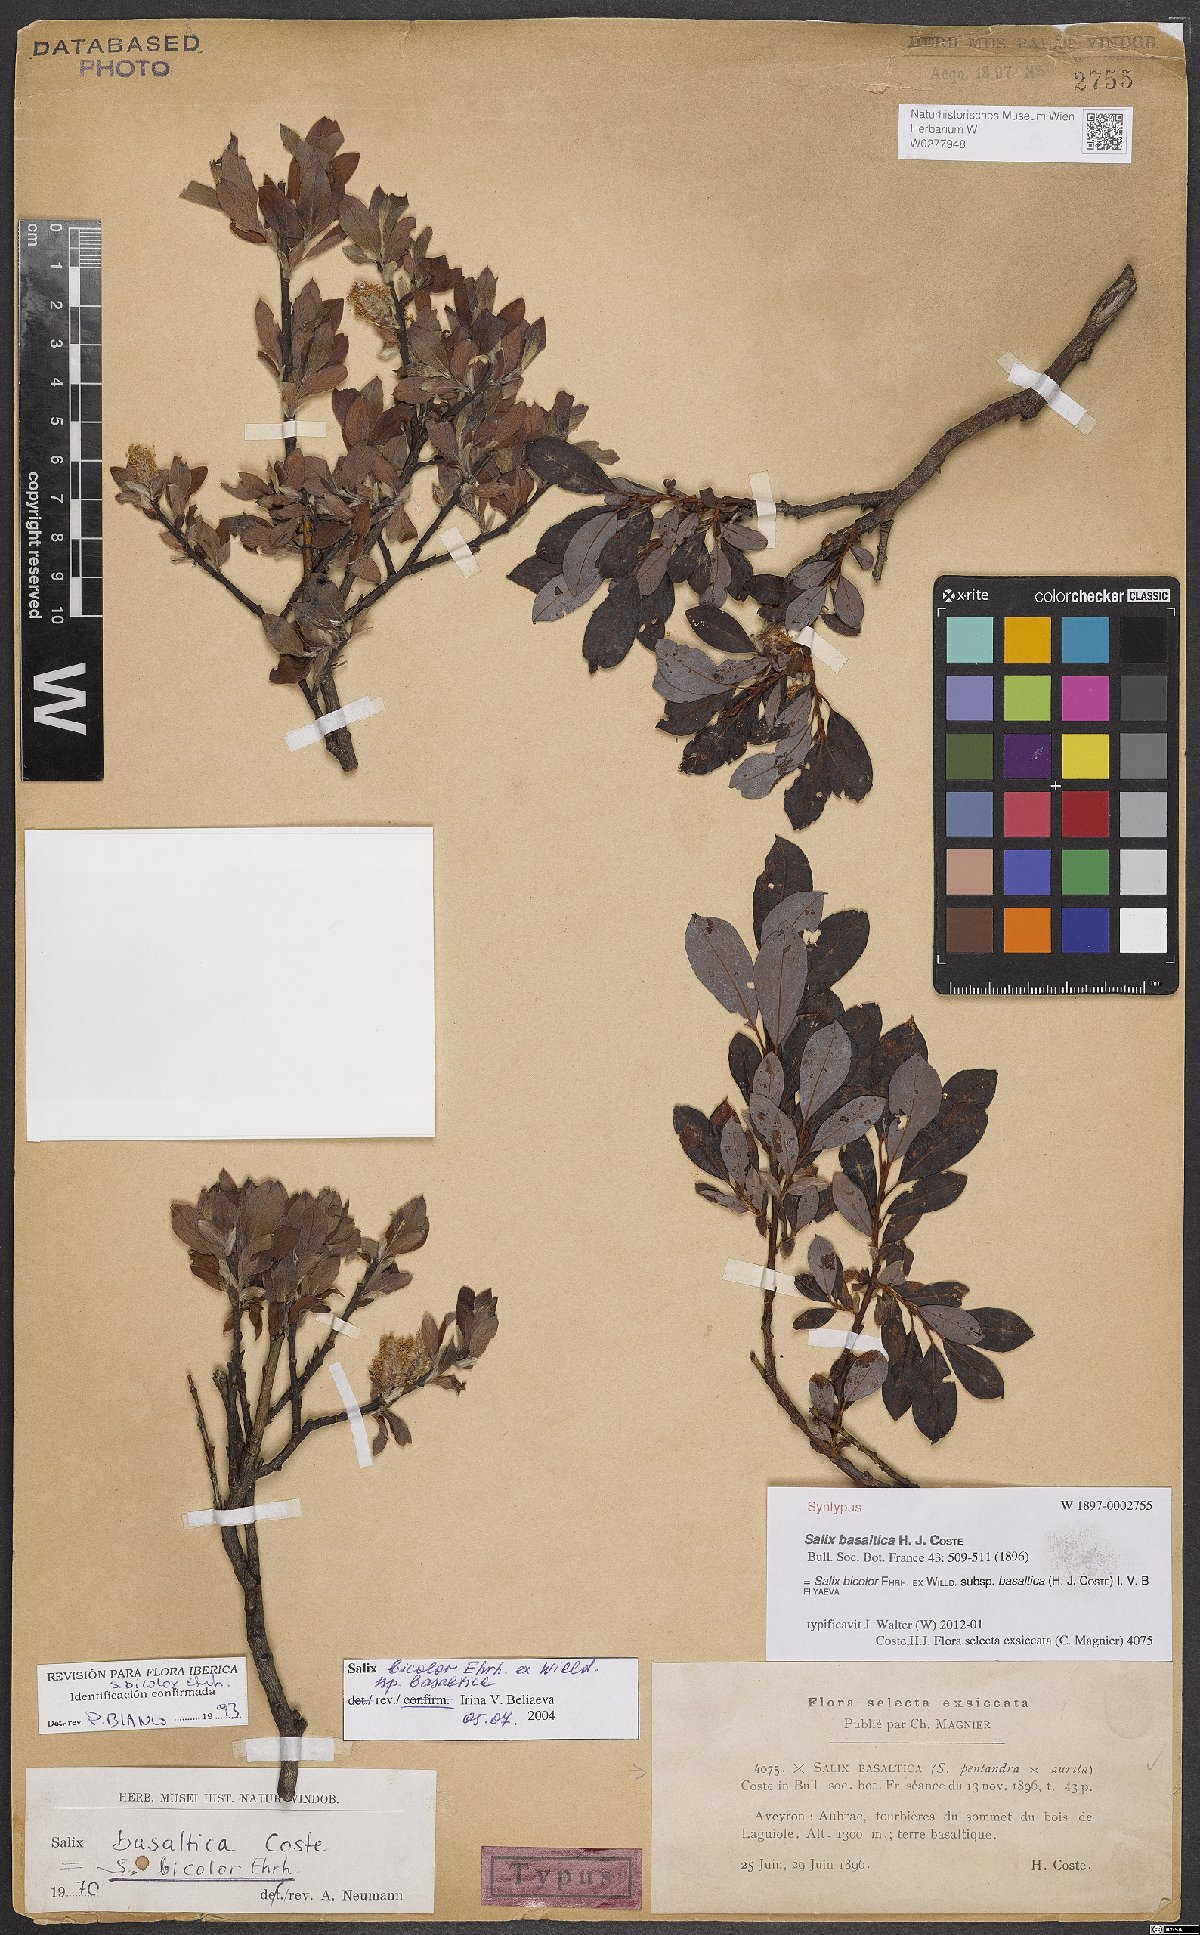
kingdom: Plantae
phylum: Tracheophyta
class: Magnoliopsida
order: Malpighiales
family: Salicaceae
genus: Salix
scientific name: Salix basaltica
